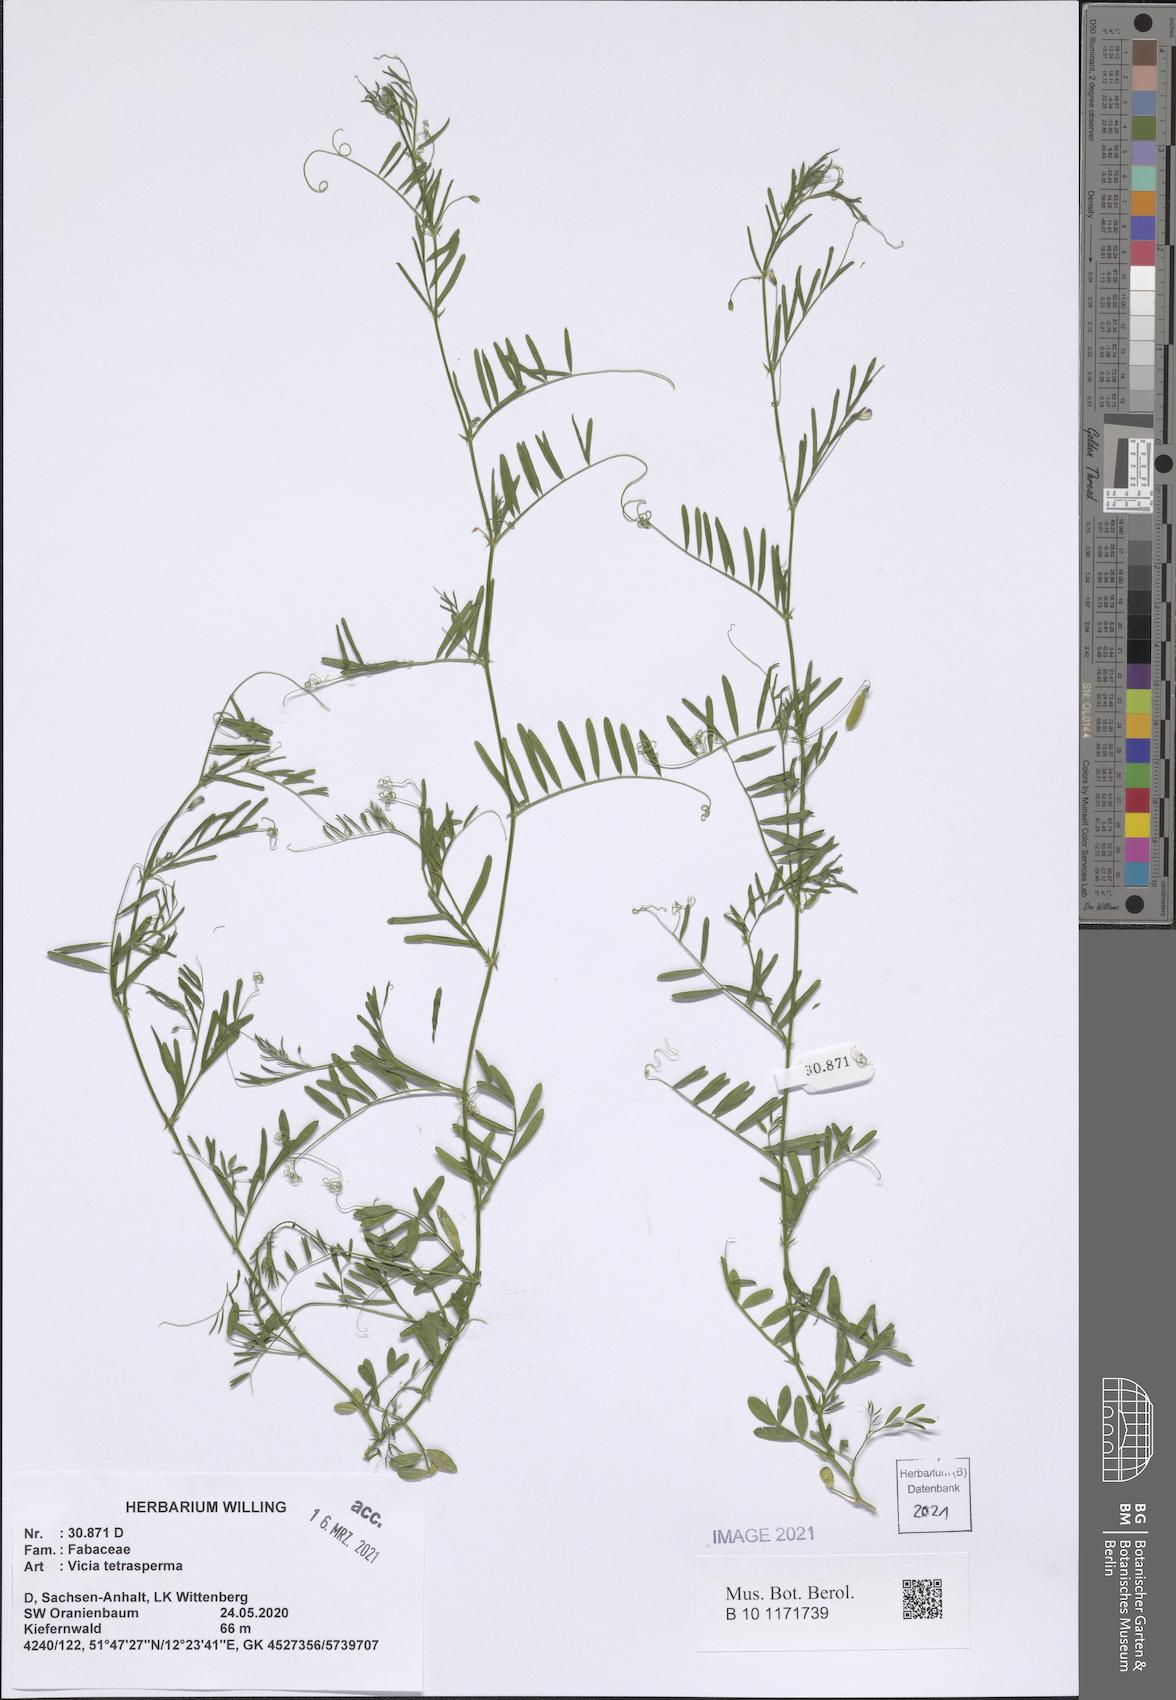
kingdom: Plantae
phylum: Tracheophyta
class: Magnoliopsida
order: Fabales
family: Fabaceae
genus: Vicia
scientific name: Vicia tetrasperma
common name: Smooth tare
